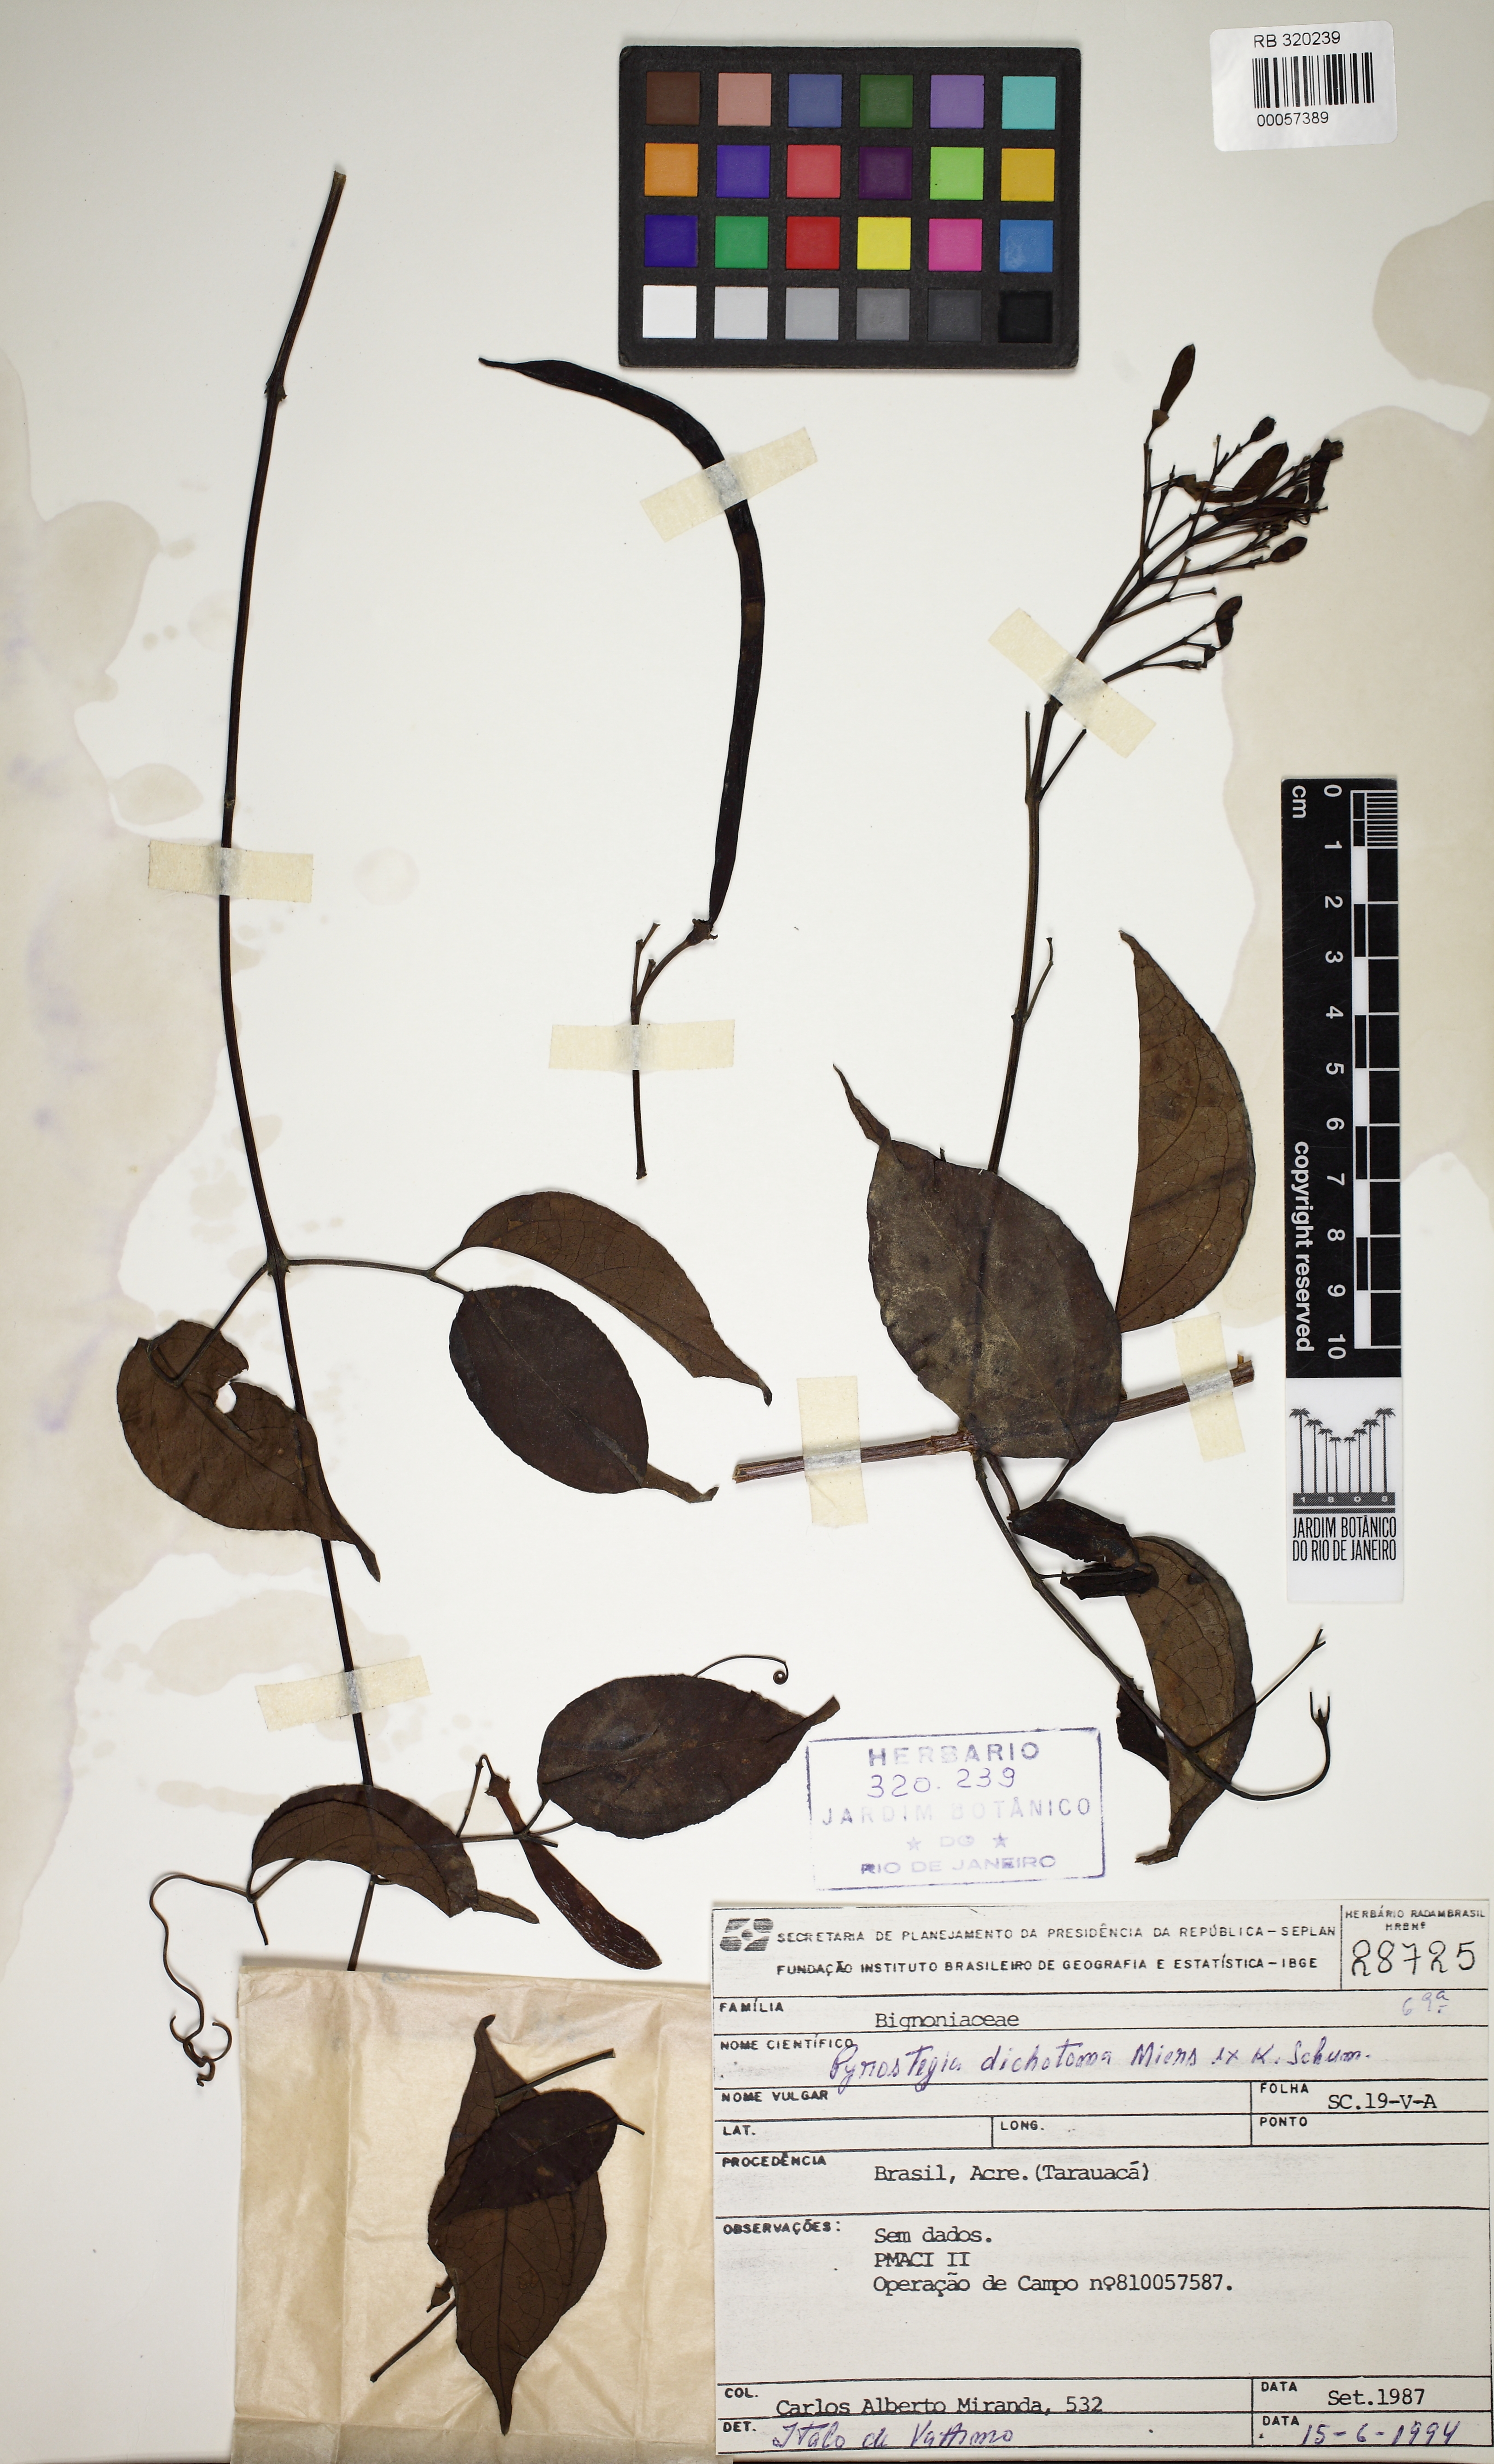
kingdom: Plantae
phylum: Tracheophyta
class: Magnoliopsida
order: Lamiales
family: Bignoniaceae
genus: Pyrostegia
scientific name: Pyrostegia venusta
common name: Flamevine
